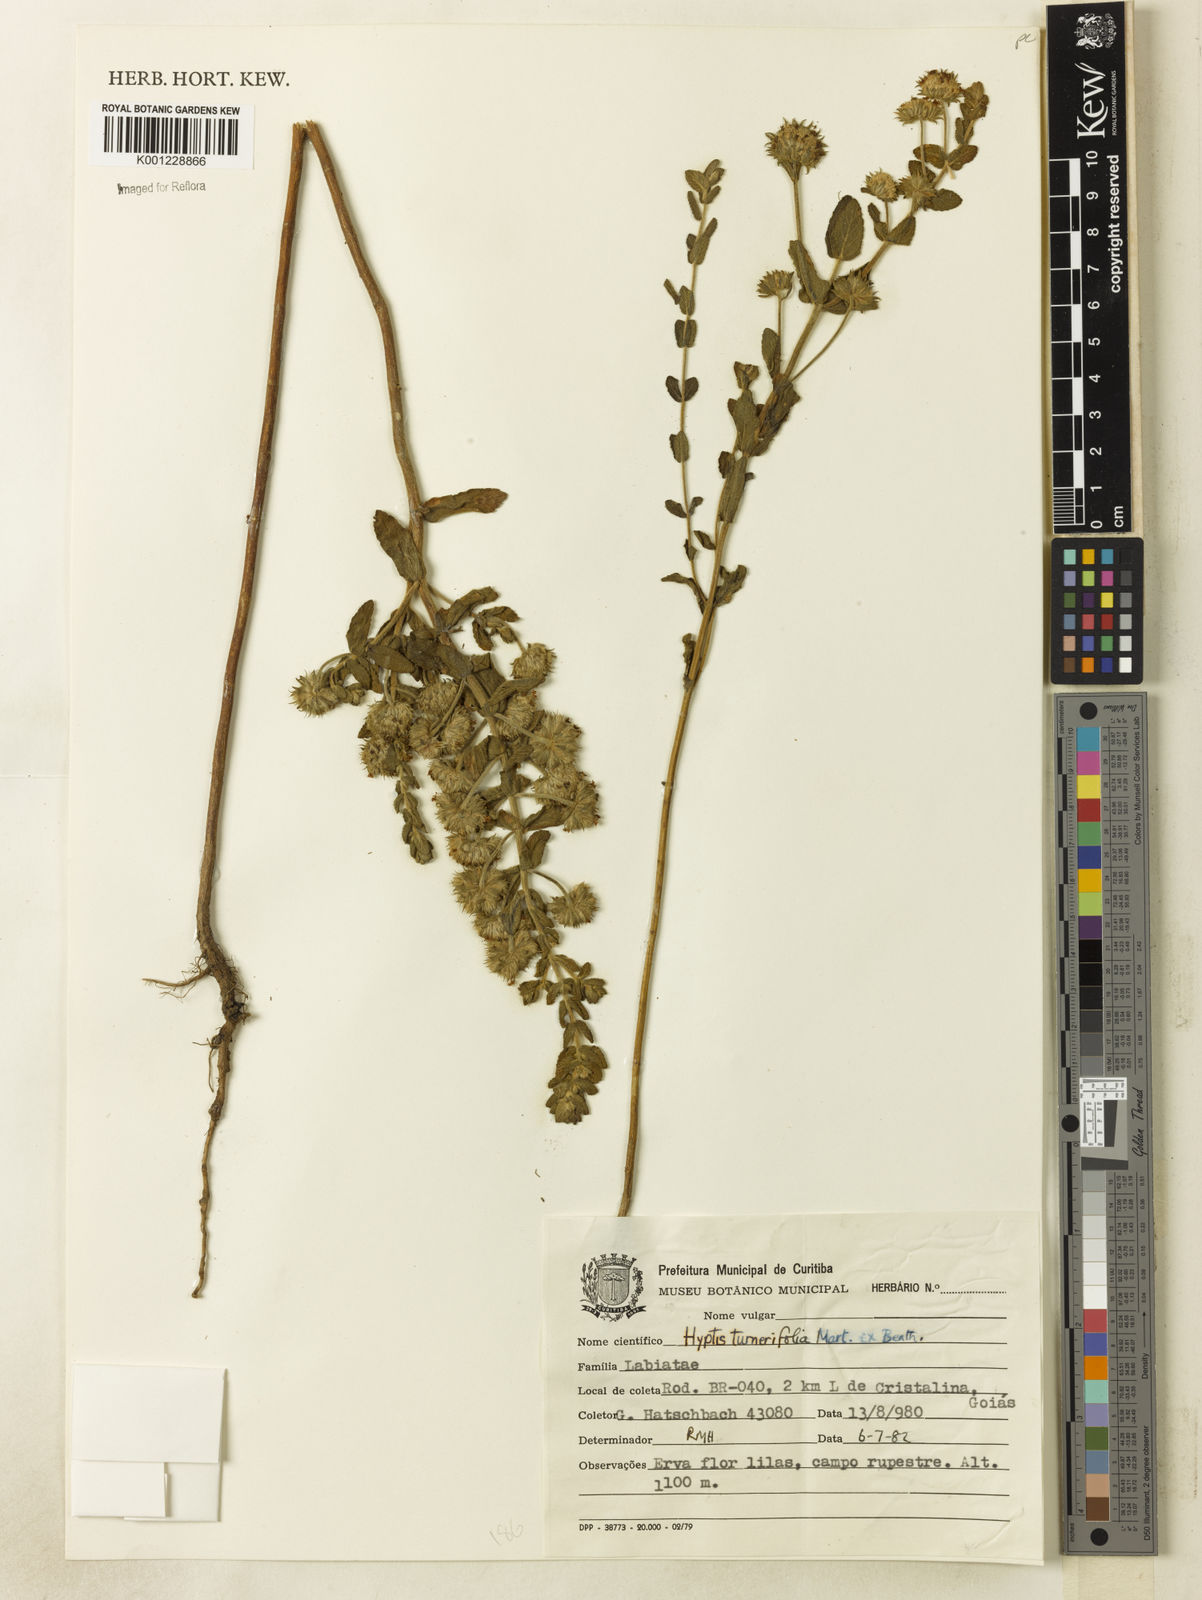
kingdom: Plantae
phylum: Tracheophyta
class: Magnoliopsida
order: Lamiales
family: Lamiaceae
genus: Hyptis
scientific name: Hyptis turnerifolia
